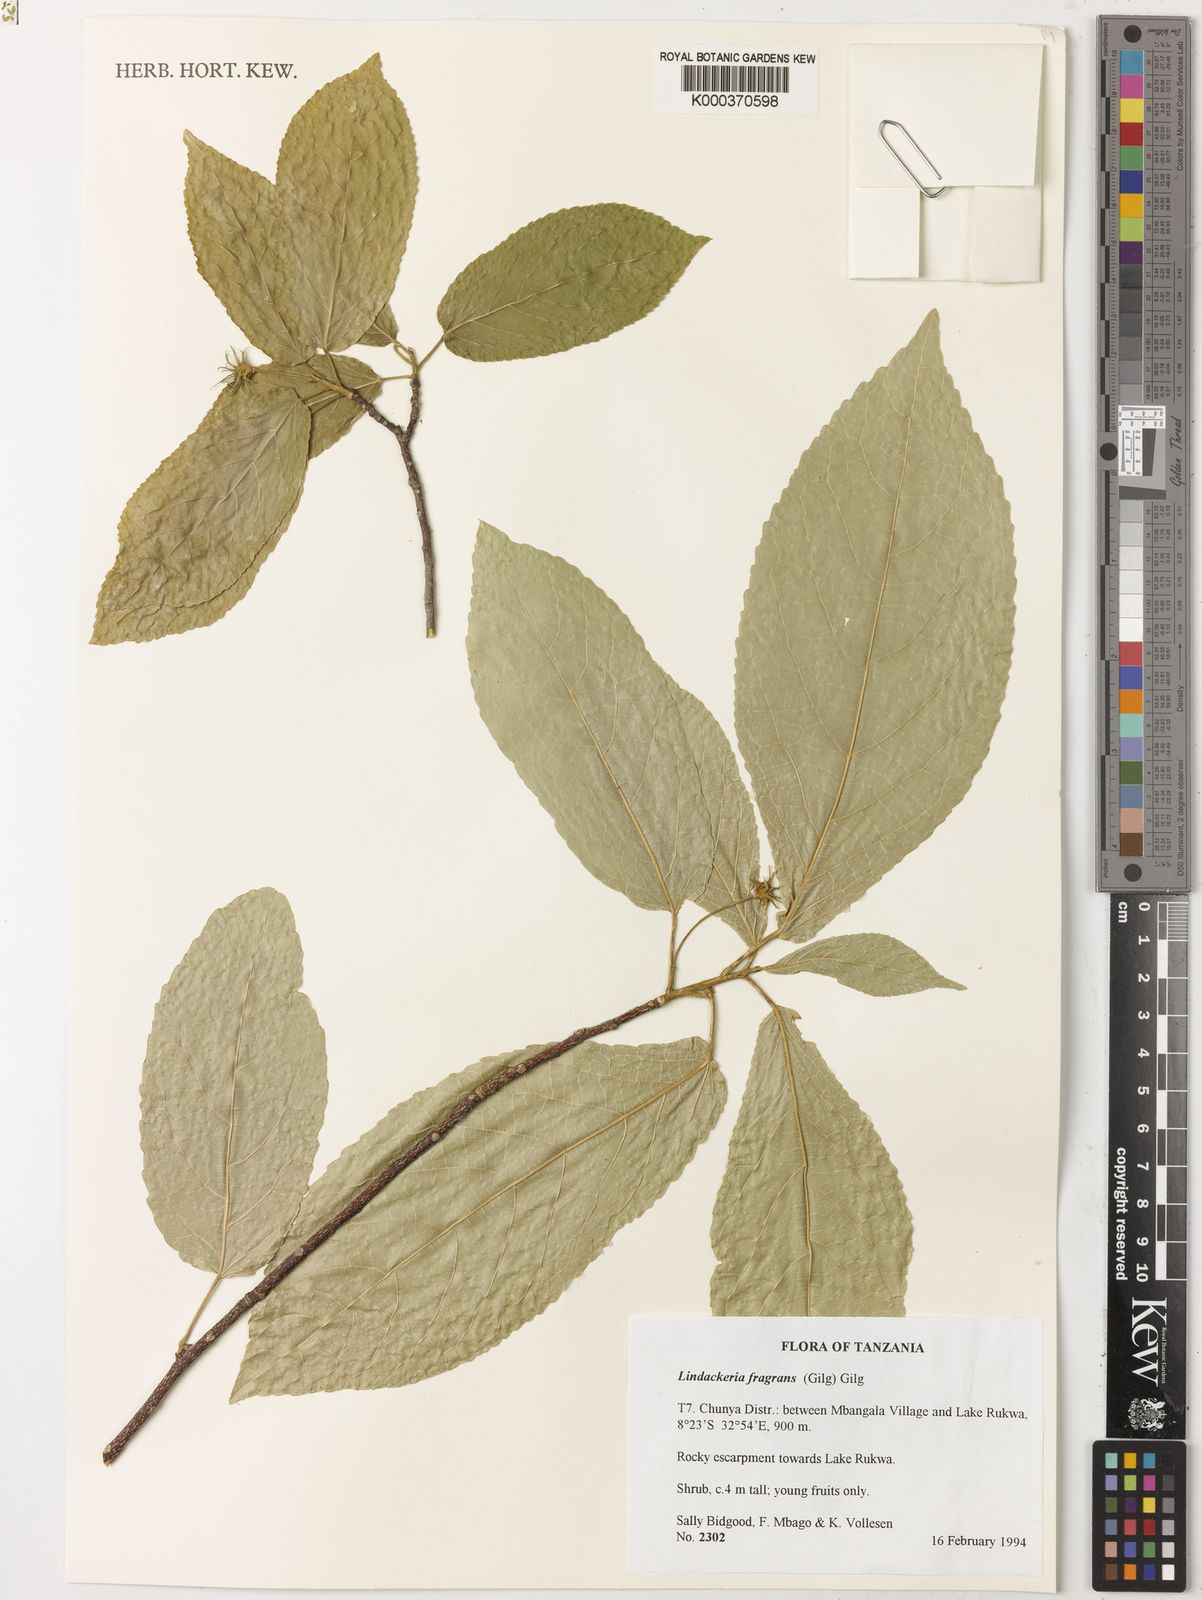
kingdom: Plantae
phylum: Tracheophyta
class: Magnoliopsida
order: Malpighiales
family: Achariaceae
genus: Lindackeria
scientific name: Lindackeria fragrans
